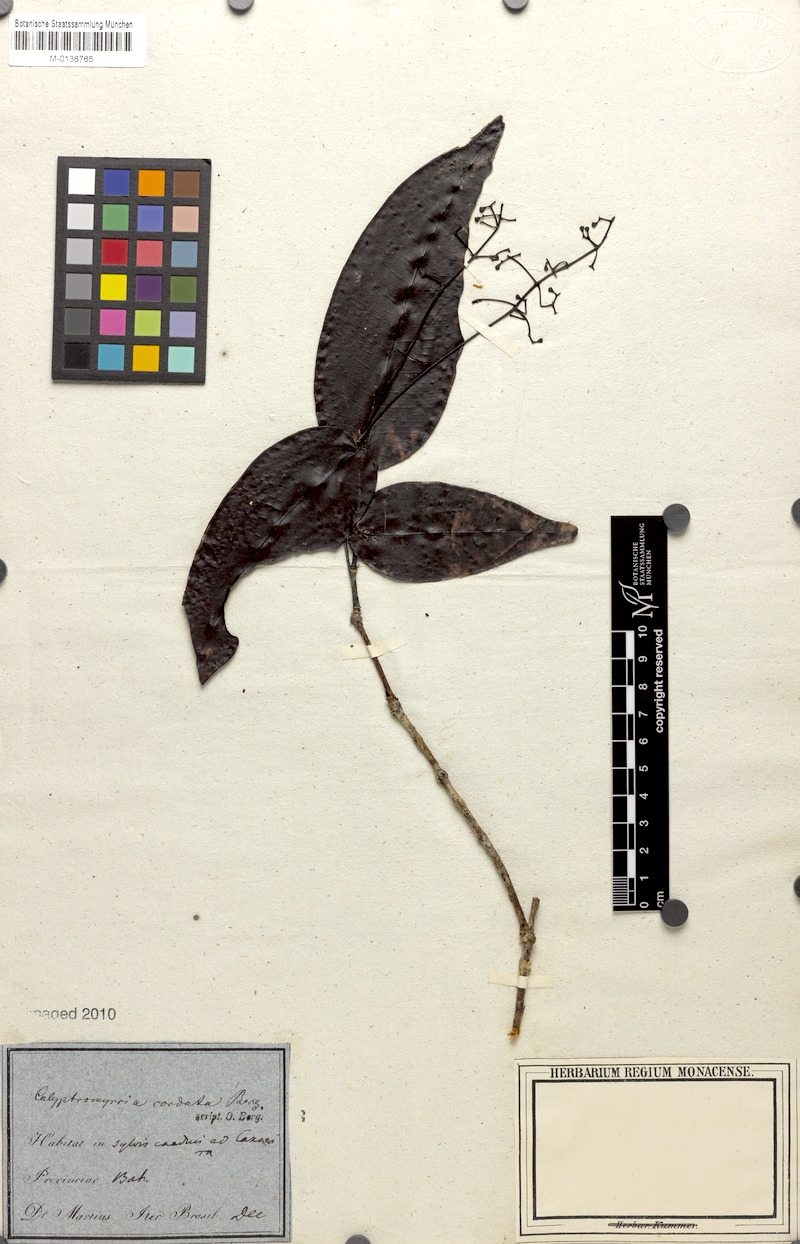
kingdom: Plantae
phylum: Tracheophyta
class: Magnoliopsida
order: Myrtales
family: Myrtaceae
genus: Myrcia
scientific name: Myrcia cordiformis
